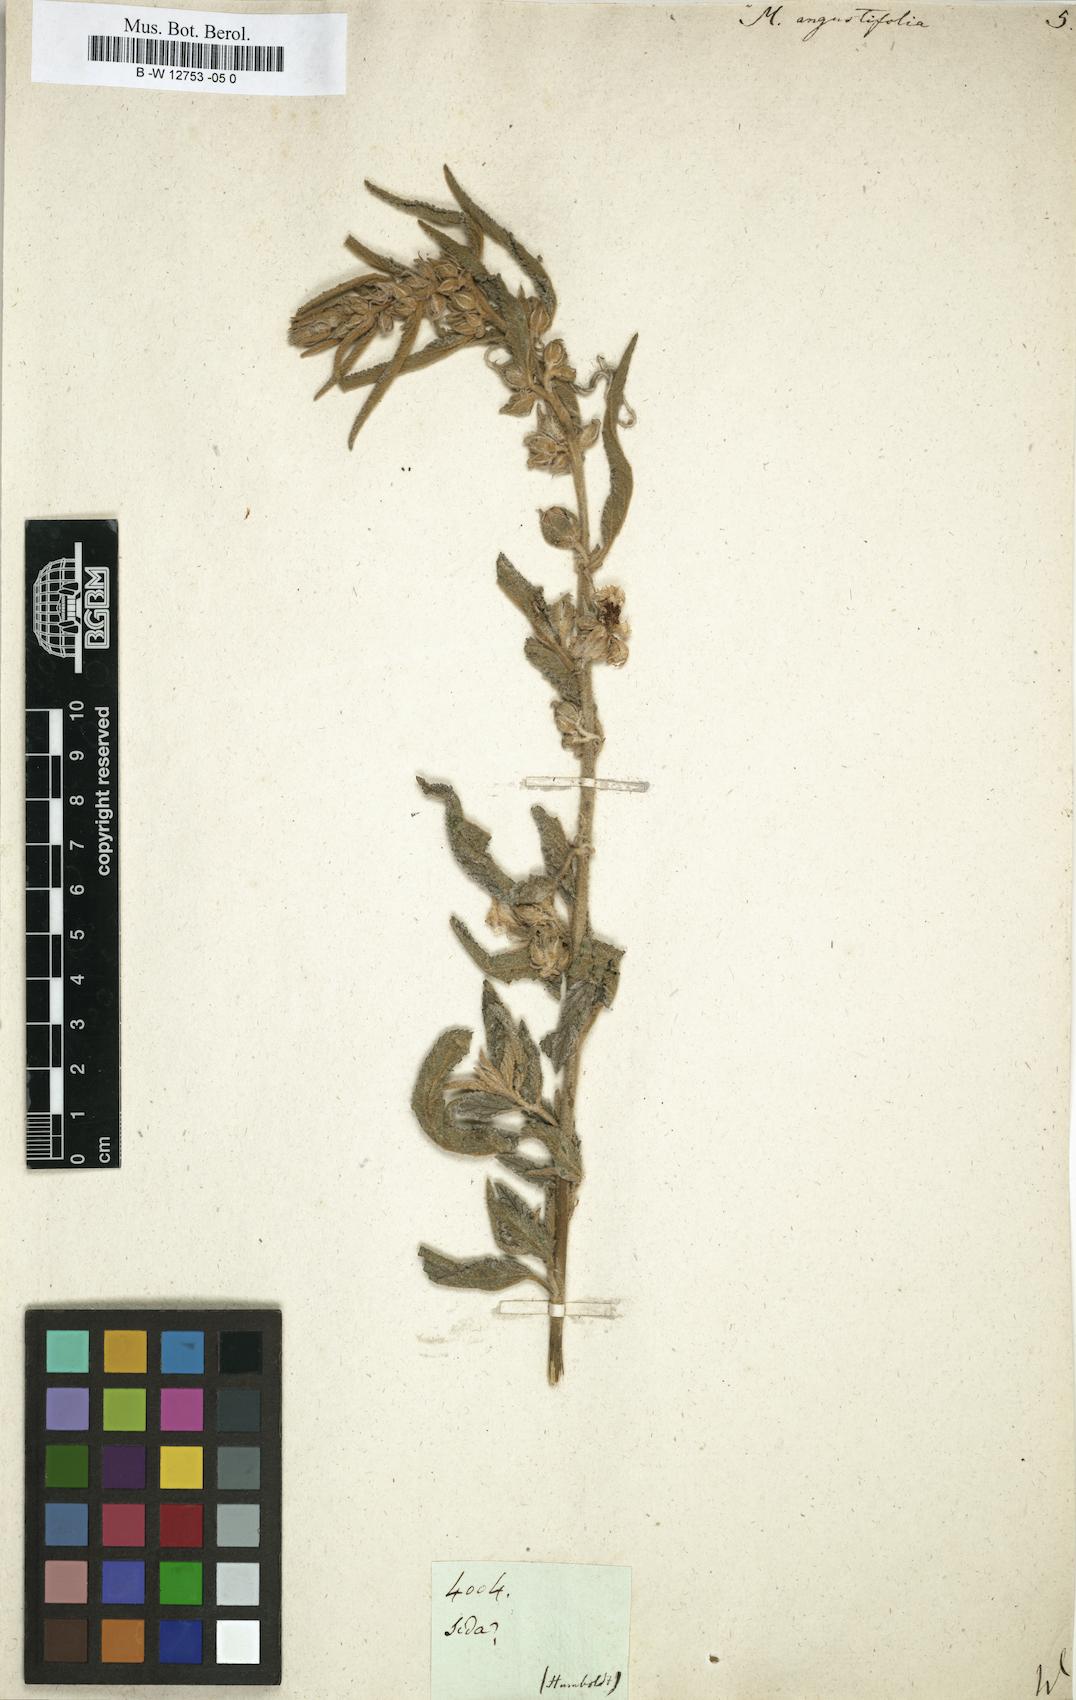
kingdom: Plantae
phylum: Tracheophyta
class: Magnoliopsida
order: Malvales
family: Malvaceae
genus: Sphaeralcea
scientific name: Sphaeralcea angustifolia
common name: Copper globe-mallow
